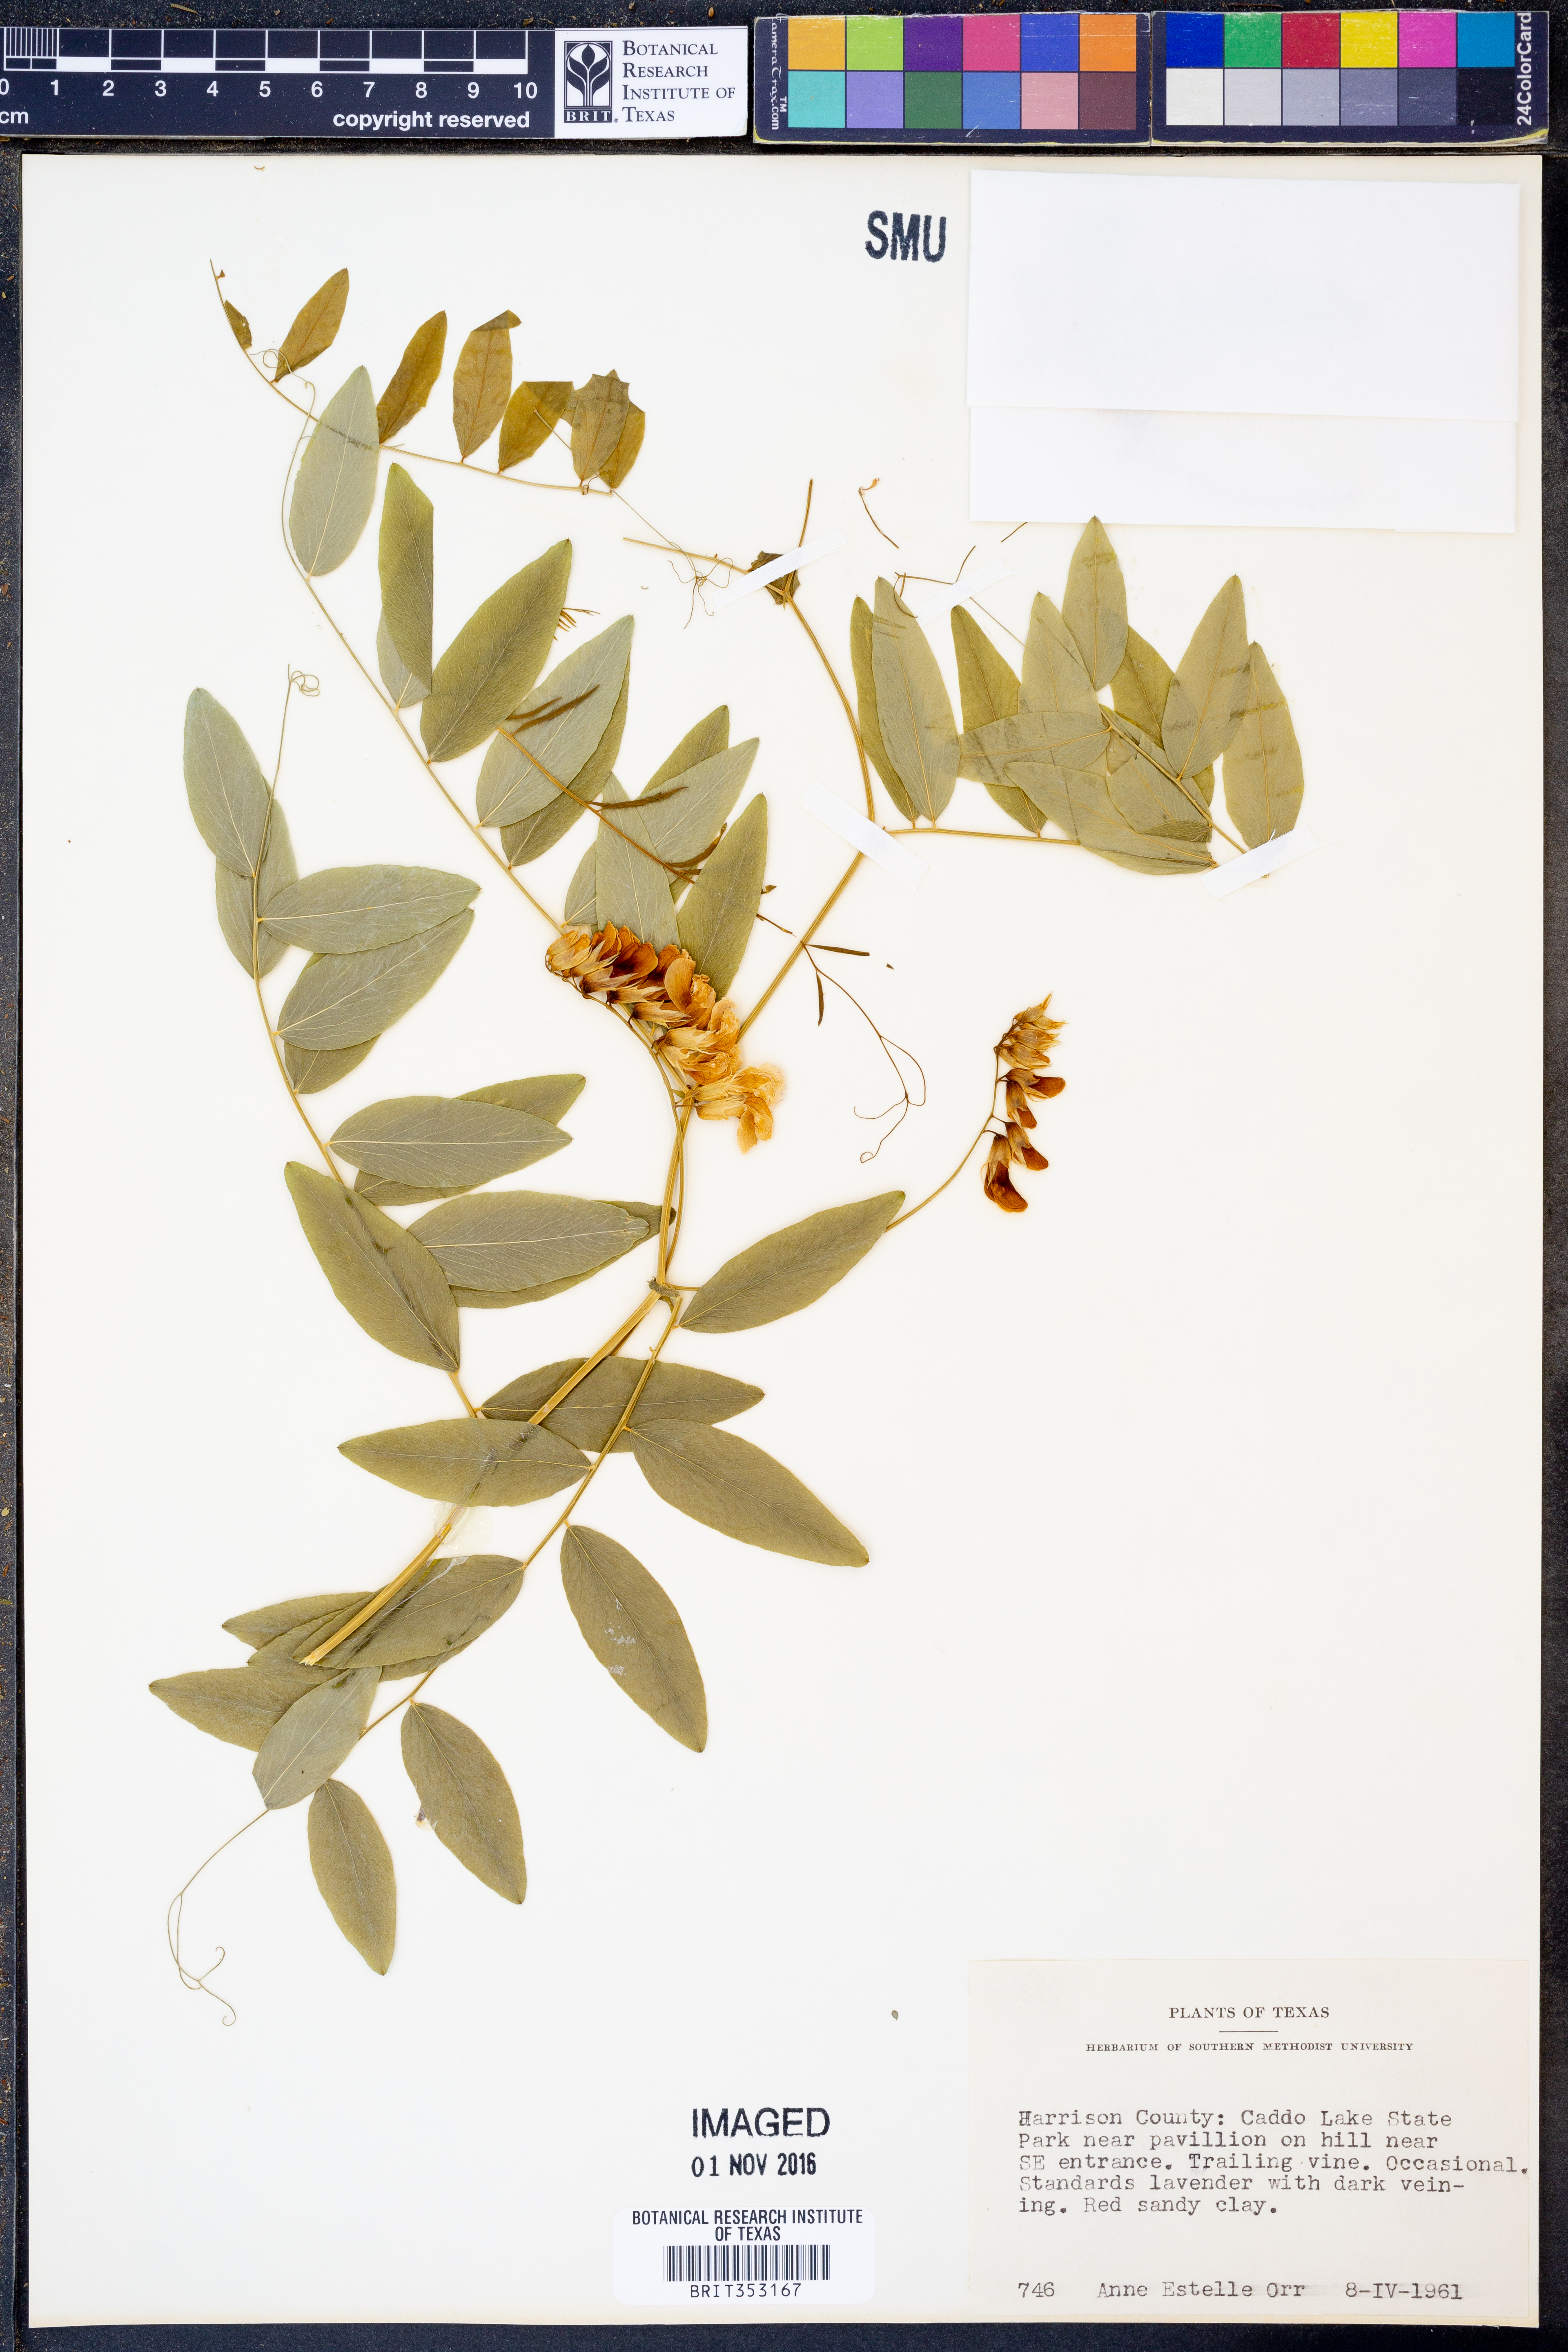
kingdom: Plantae
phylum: Tracheophyta
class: Magnoliopsida
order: Fabales
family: Fabaceae
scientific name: Fabaceae
